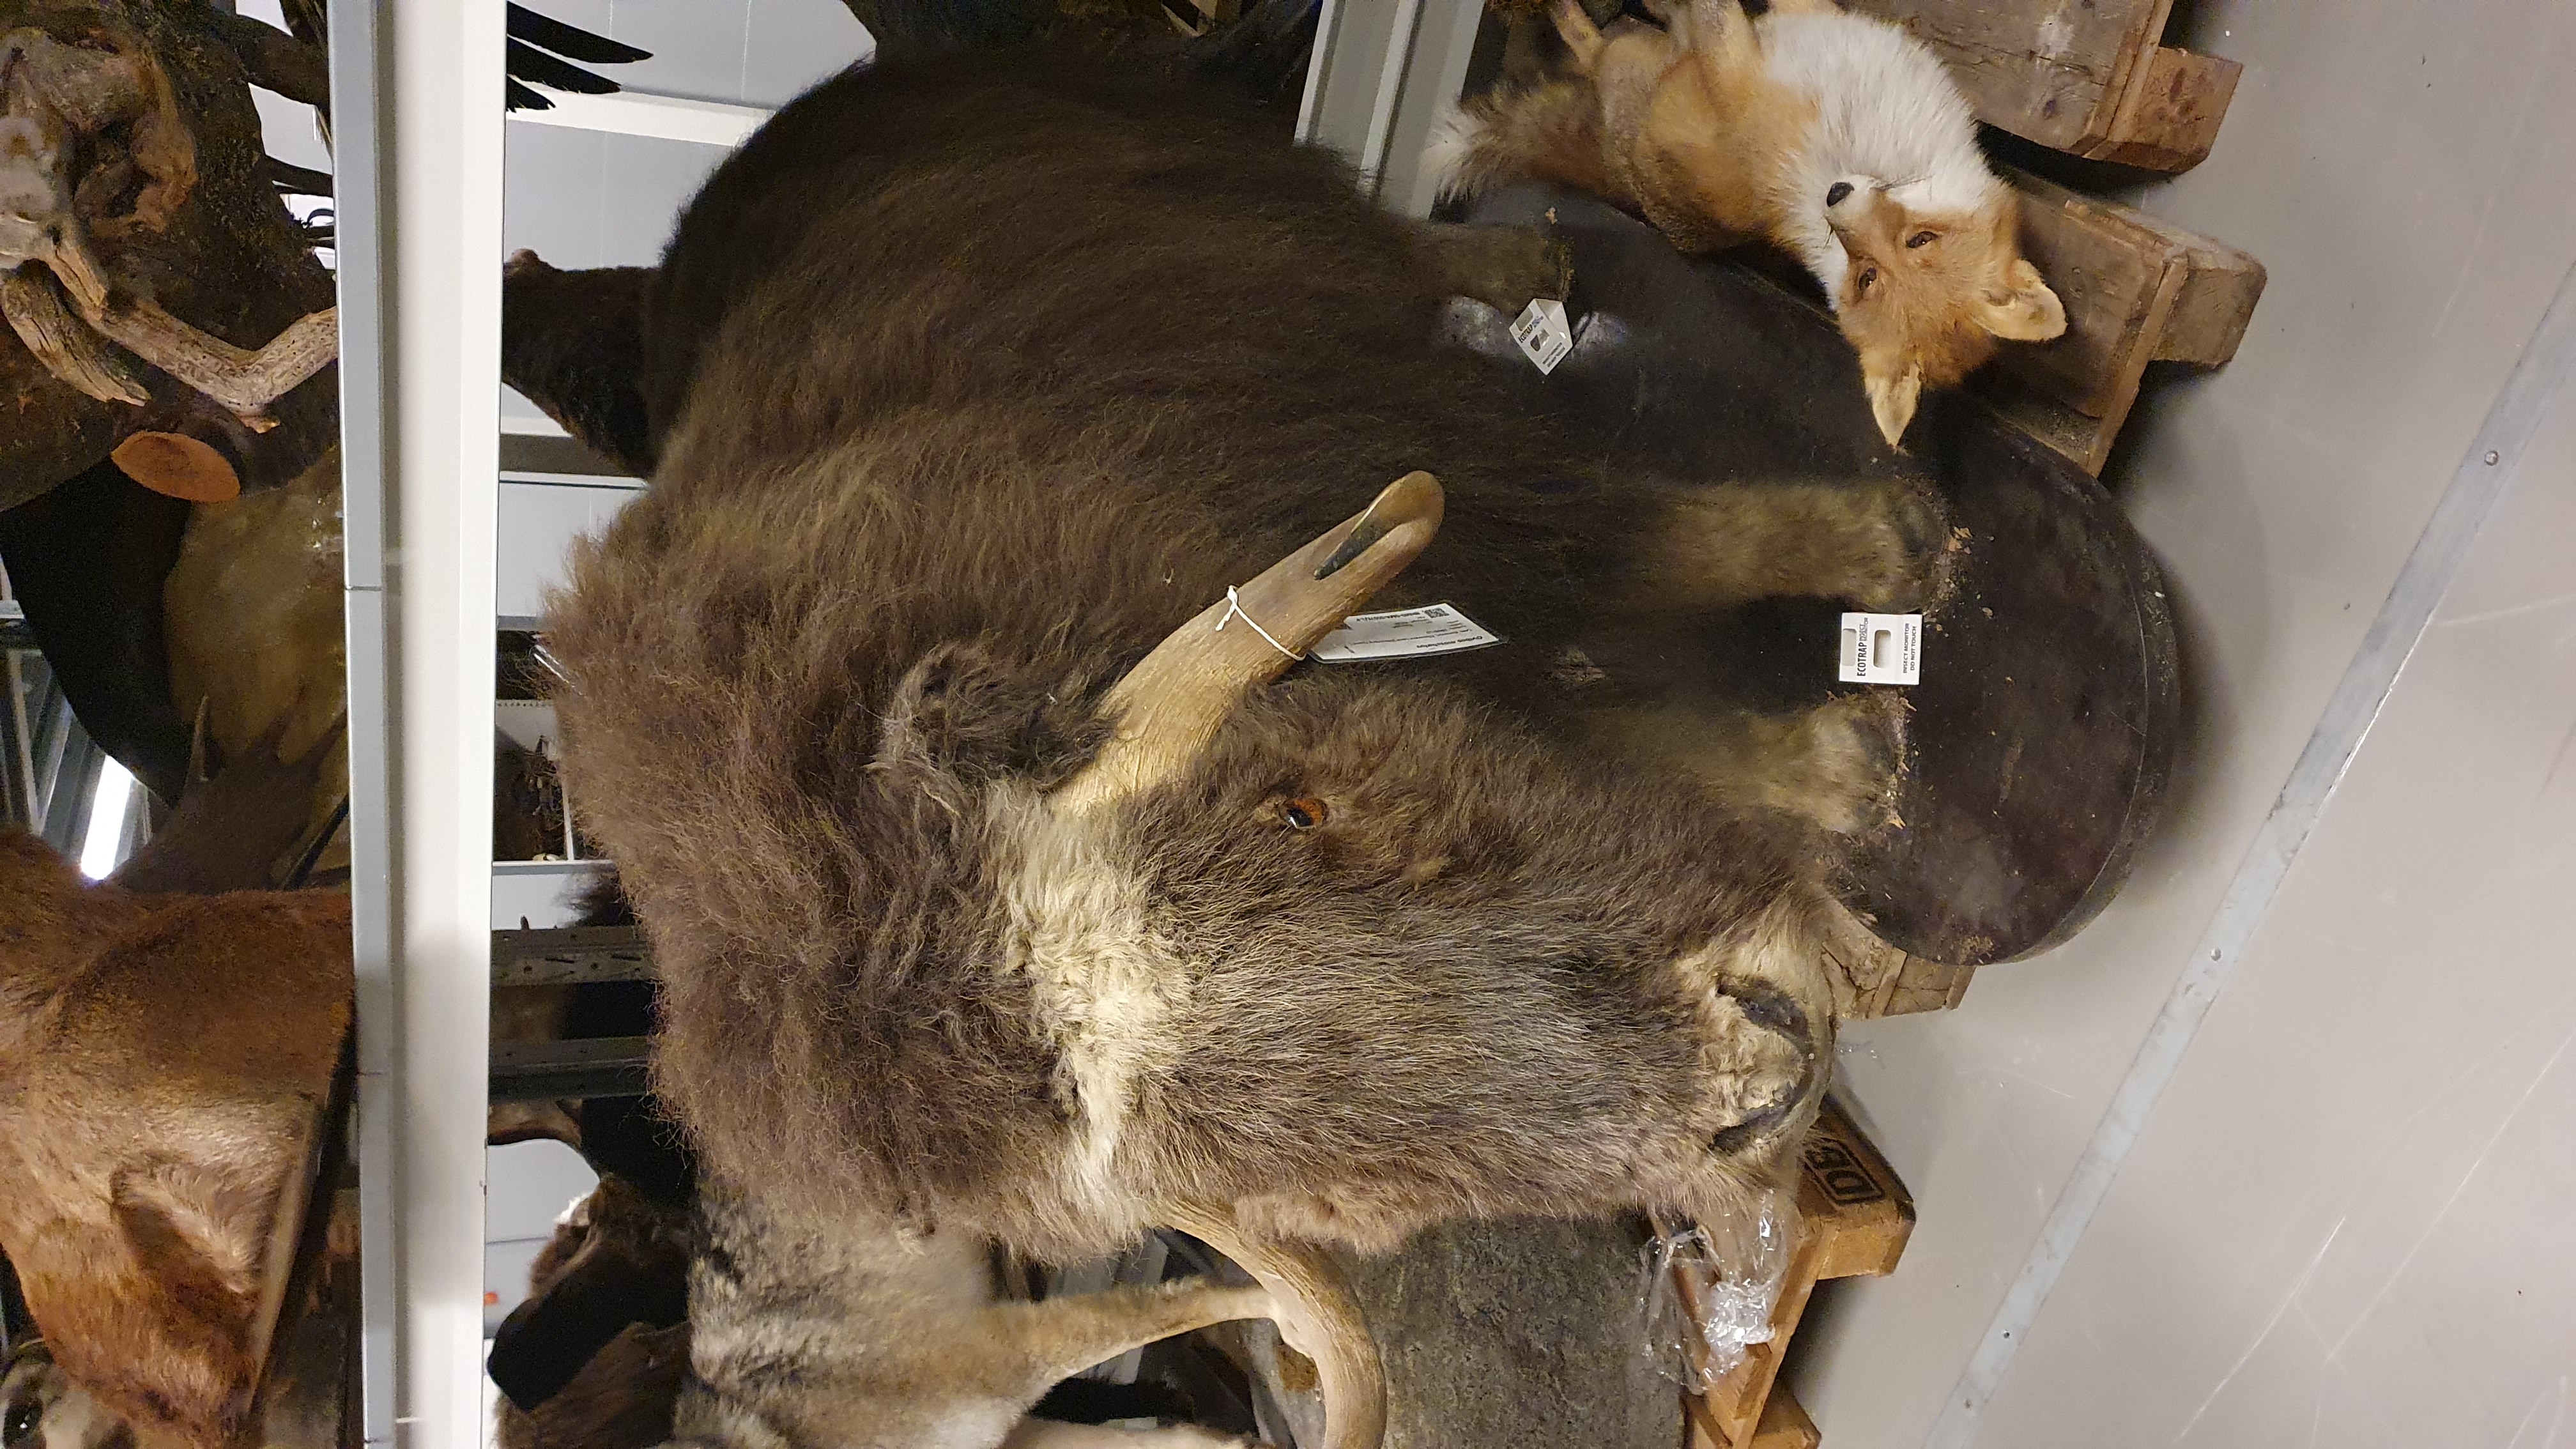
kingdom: Animalia
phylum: Chordata
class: Mammalia
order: Artiodactyla
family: Bovidae
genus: Ovibos
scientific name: Ovibos moschatus
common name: Muskox
